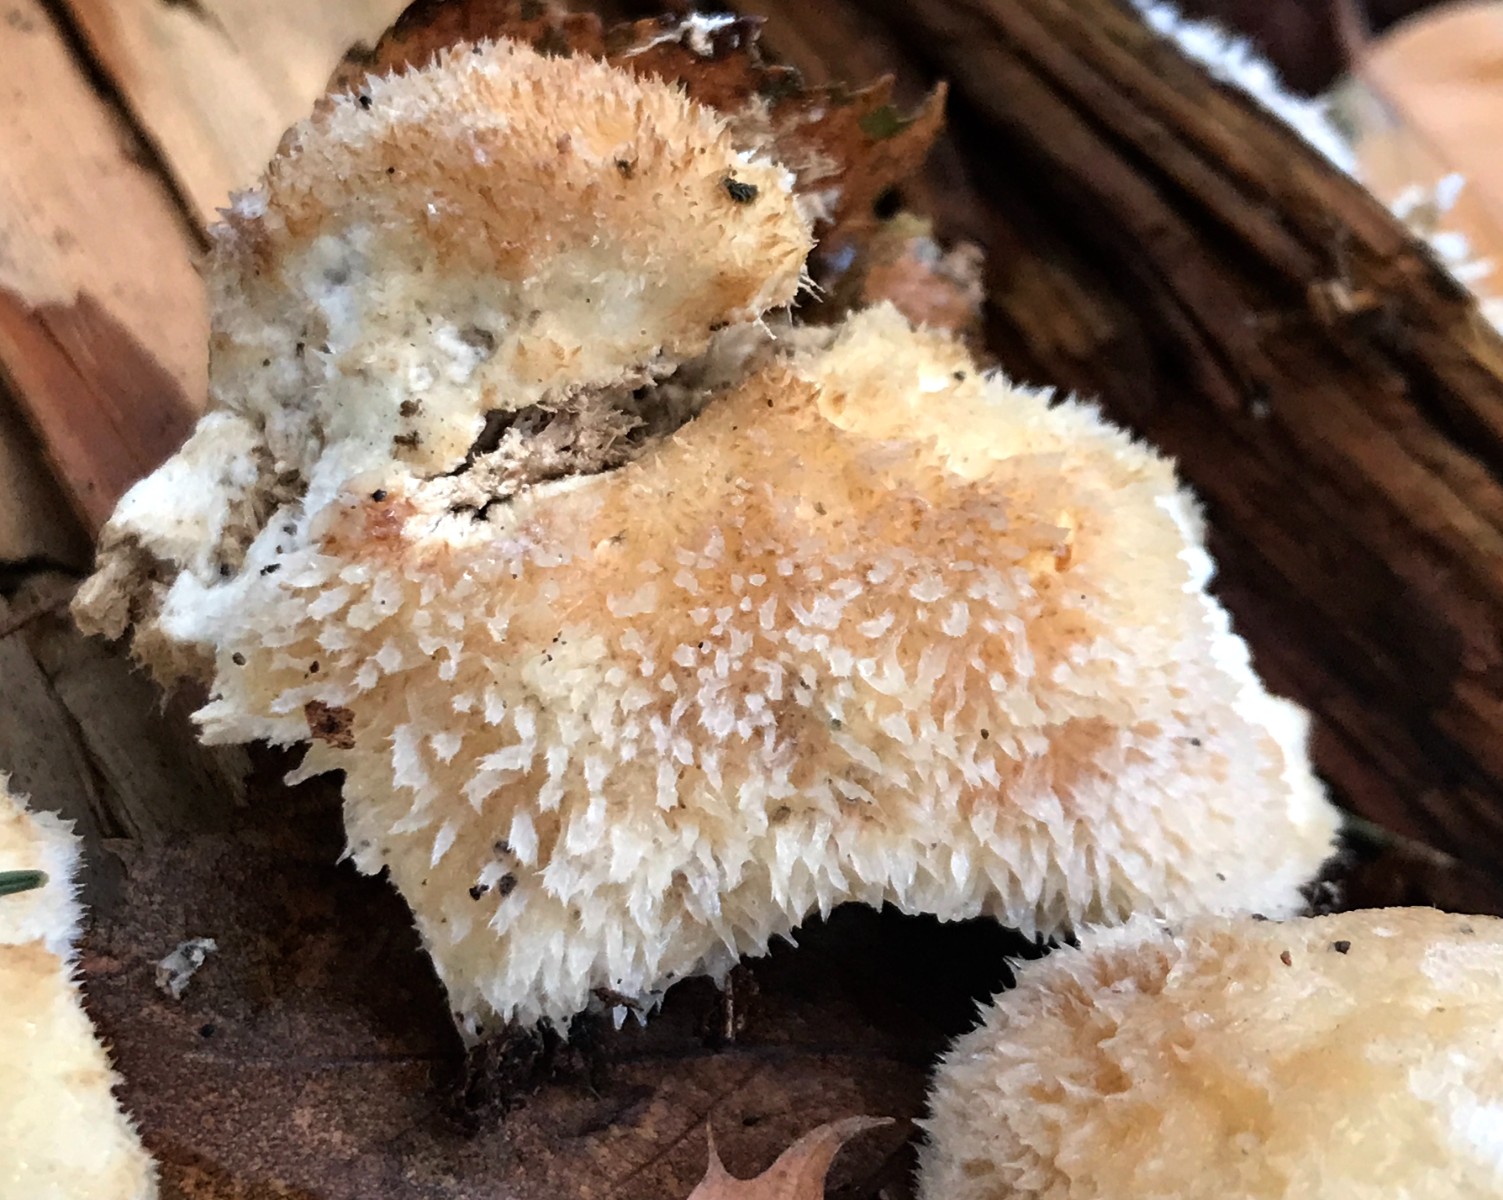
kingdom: Fungi
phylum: Basidiomycota
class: Agaricomycetes
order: Polyporales
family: Dacryobolaceae
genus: Postia
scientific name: Postia ptychogaster
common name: støvende kødporesvamp
